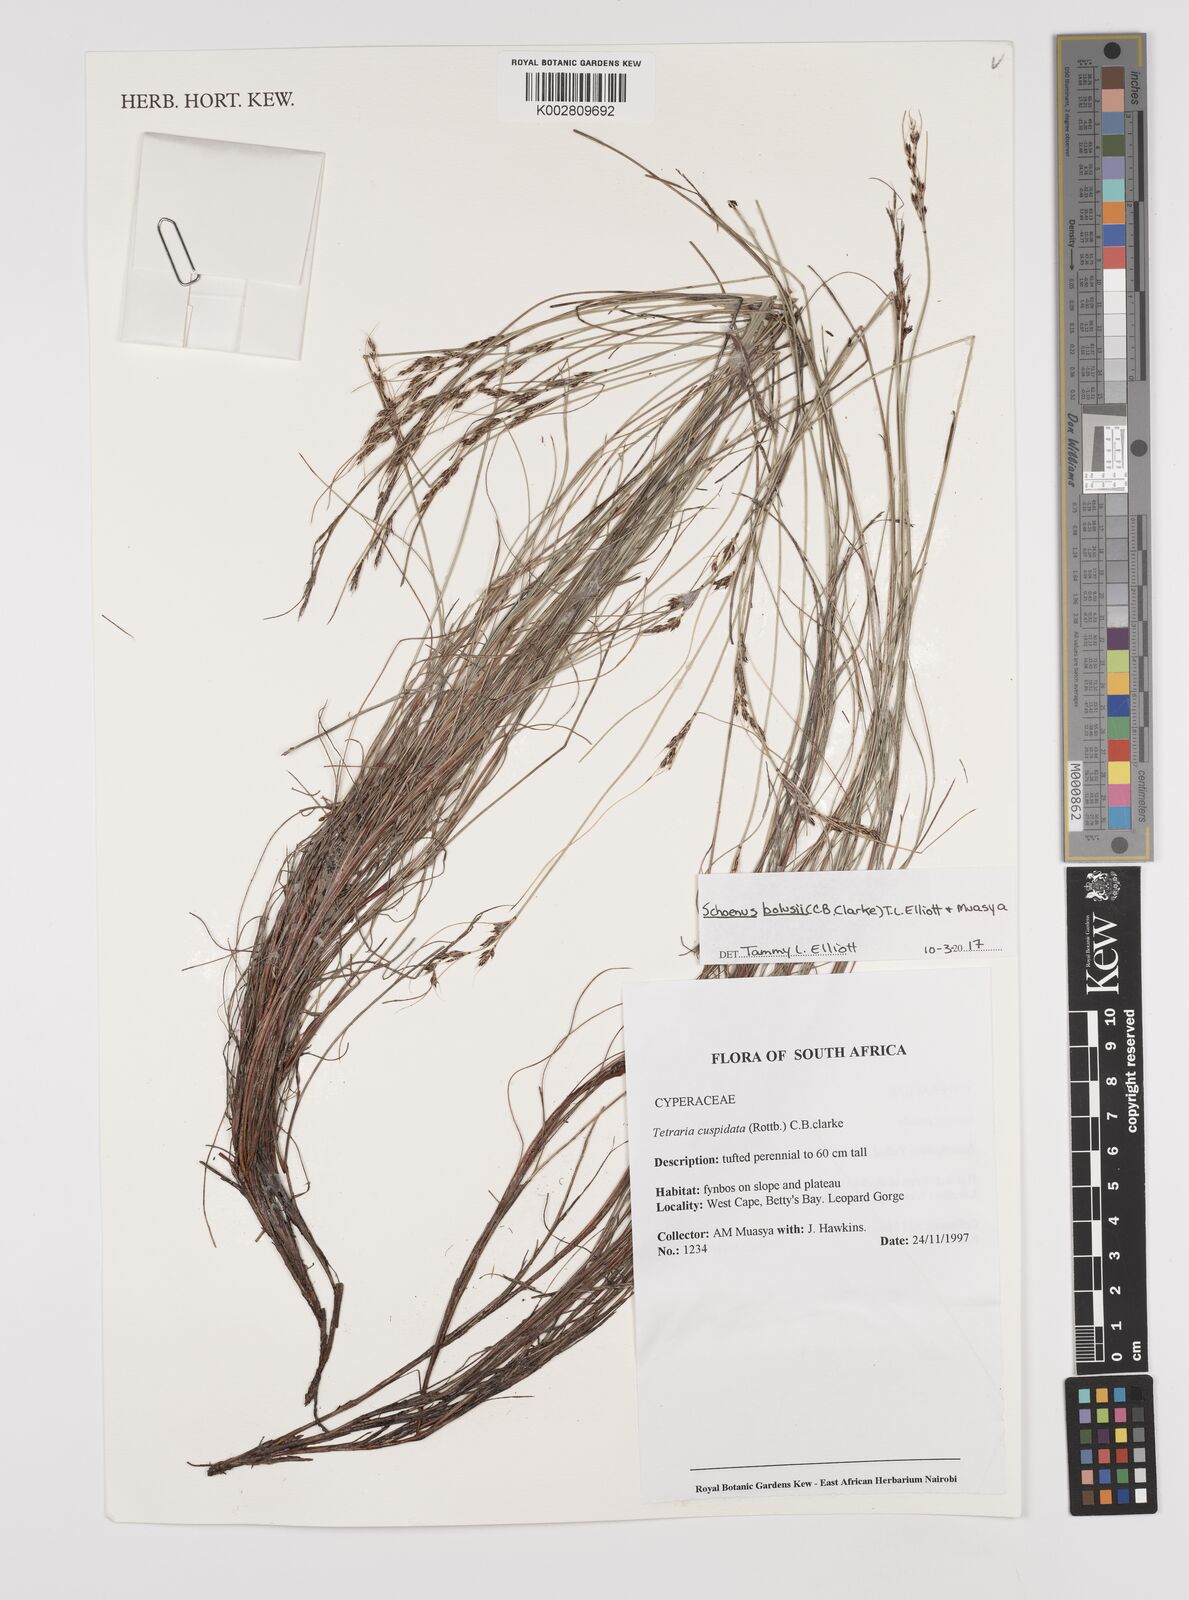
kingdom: Plantae
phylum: Tracheophyta
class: Liliopsida
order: Poales
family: Cyperaceae
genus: Schoenus
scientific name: Schoenus bolusii
